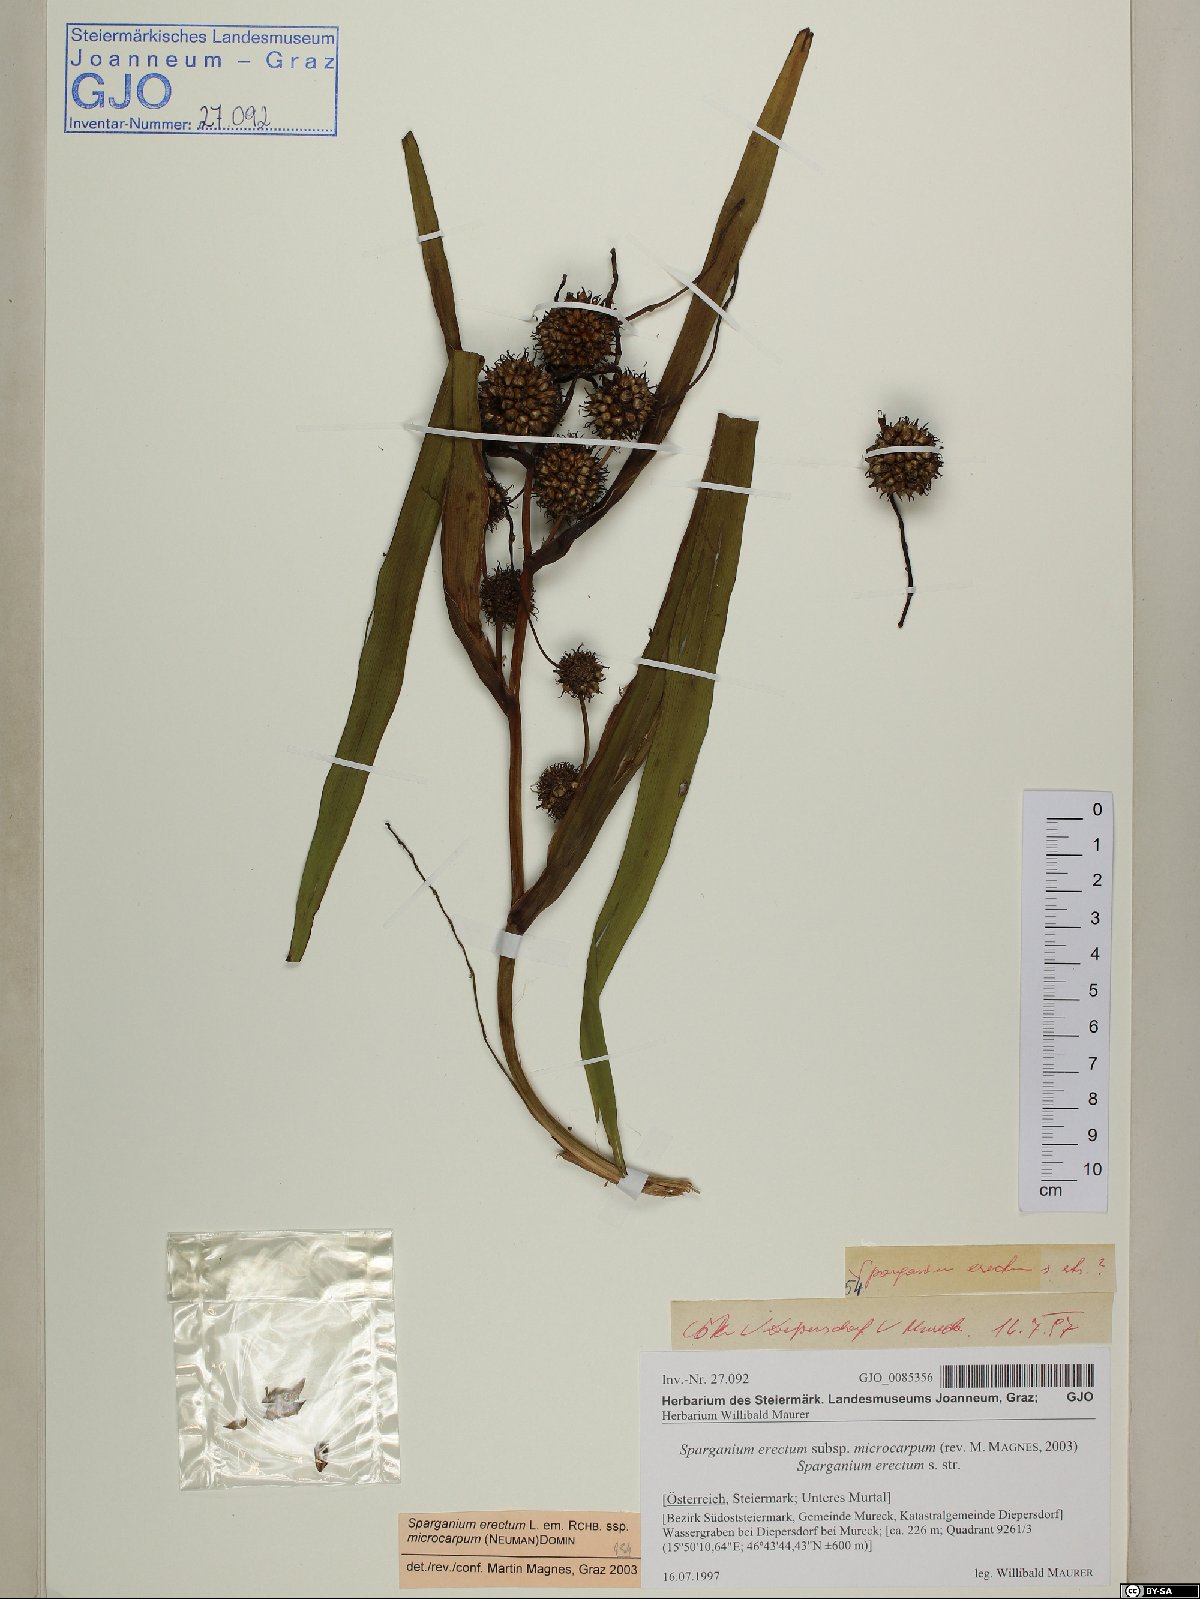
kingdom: Plantae
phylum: Tracheophyta
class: Liliopsida
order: Poales
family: Typhaceae
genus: Sparganium
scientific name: Sparganium erectum
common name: Branched bur-reed
